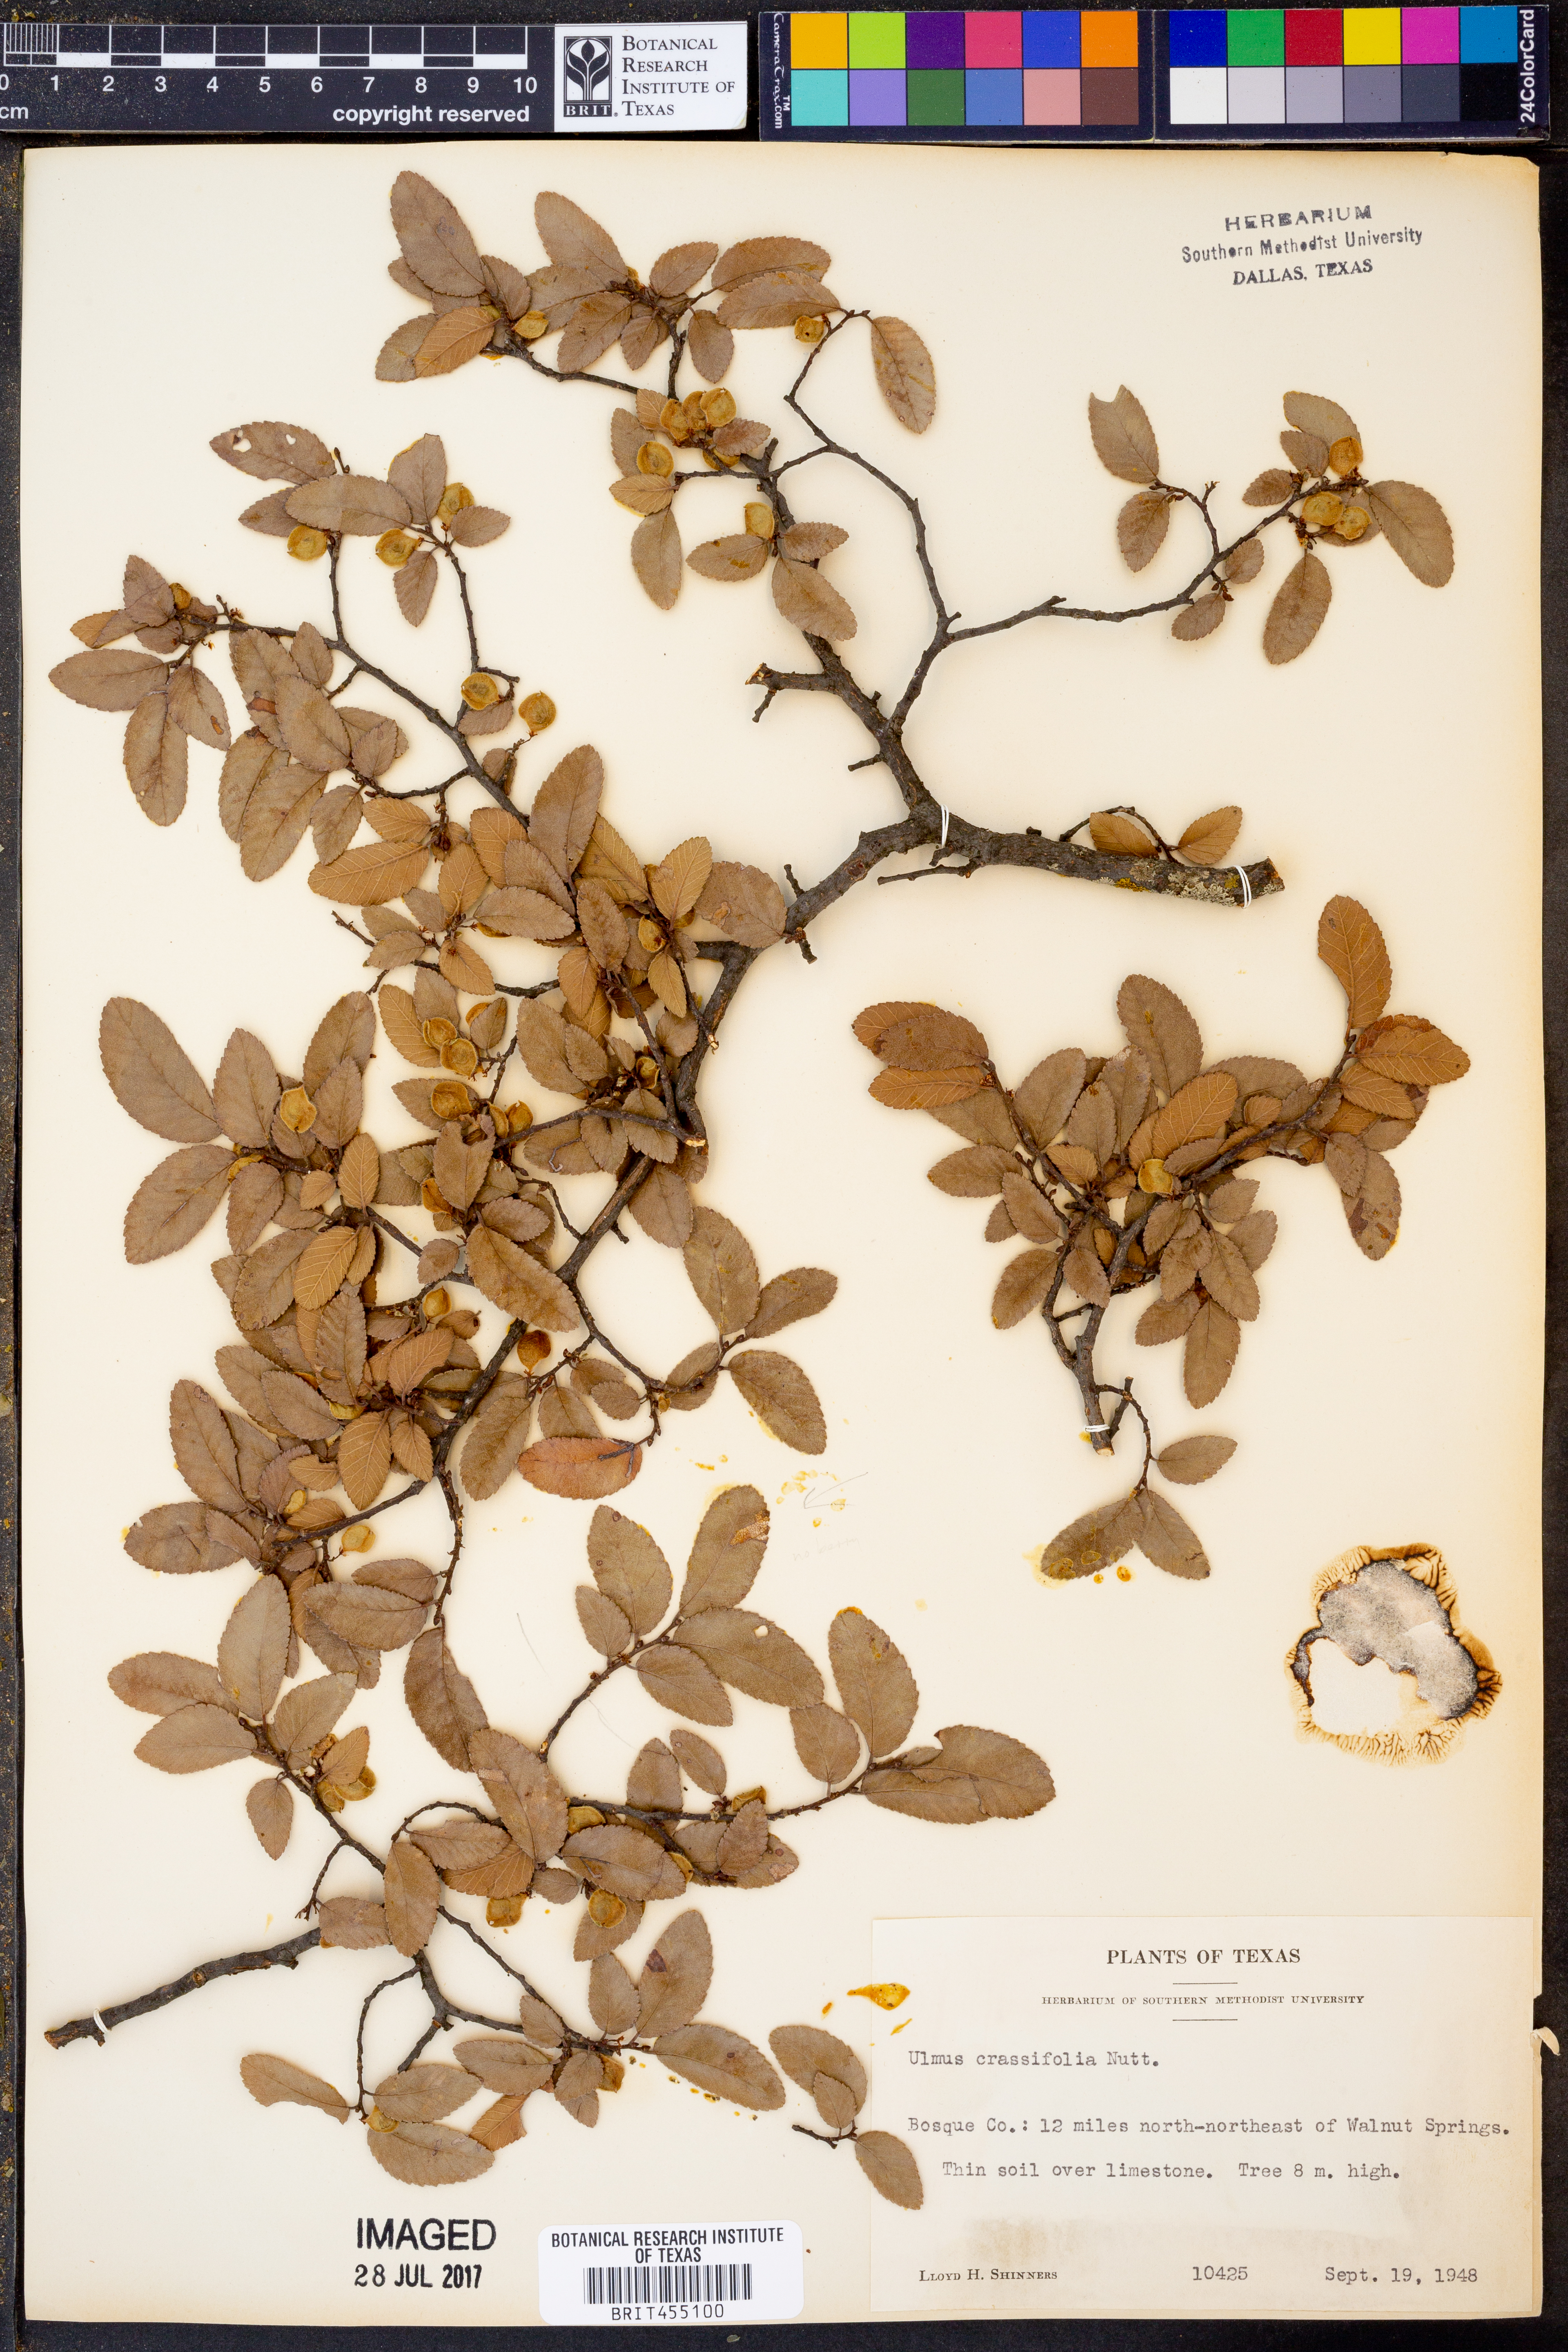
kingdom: Plantae
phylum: Tracheophyta
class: Magnoliopsida
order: Rosales
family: Ulmaceae
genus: Ulmus
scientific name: Ulmus crassifolia
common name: Basket elm
